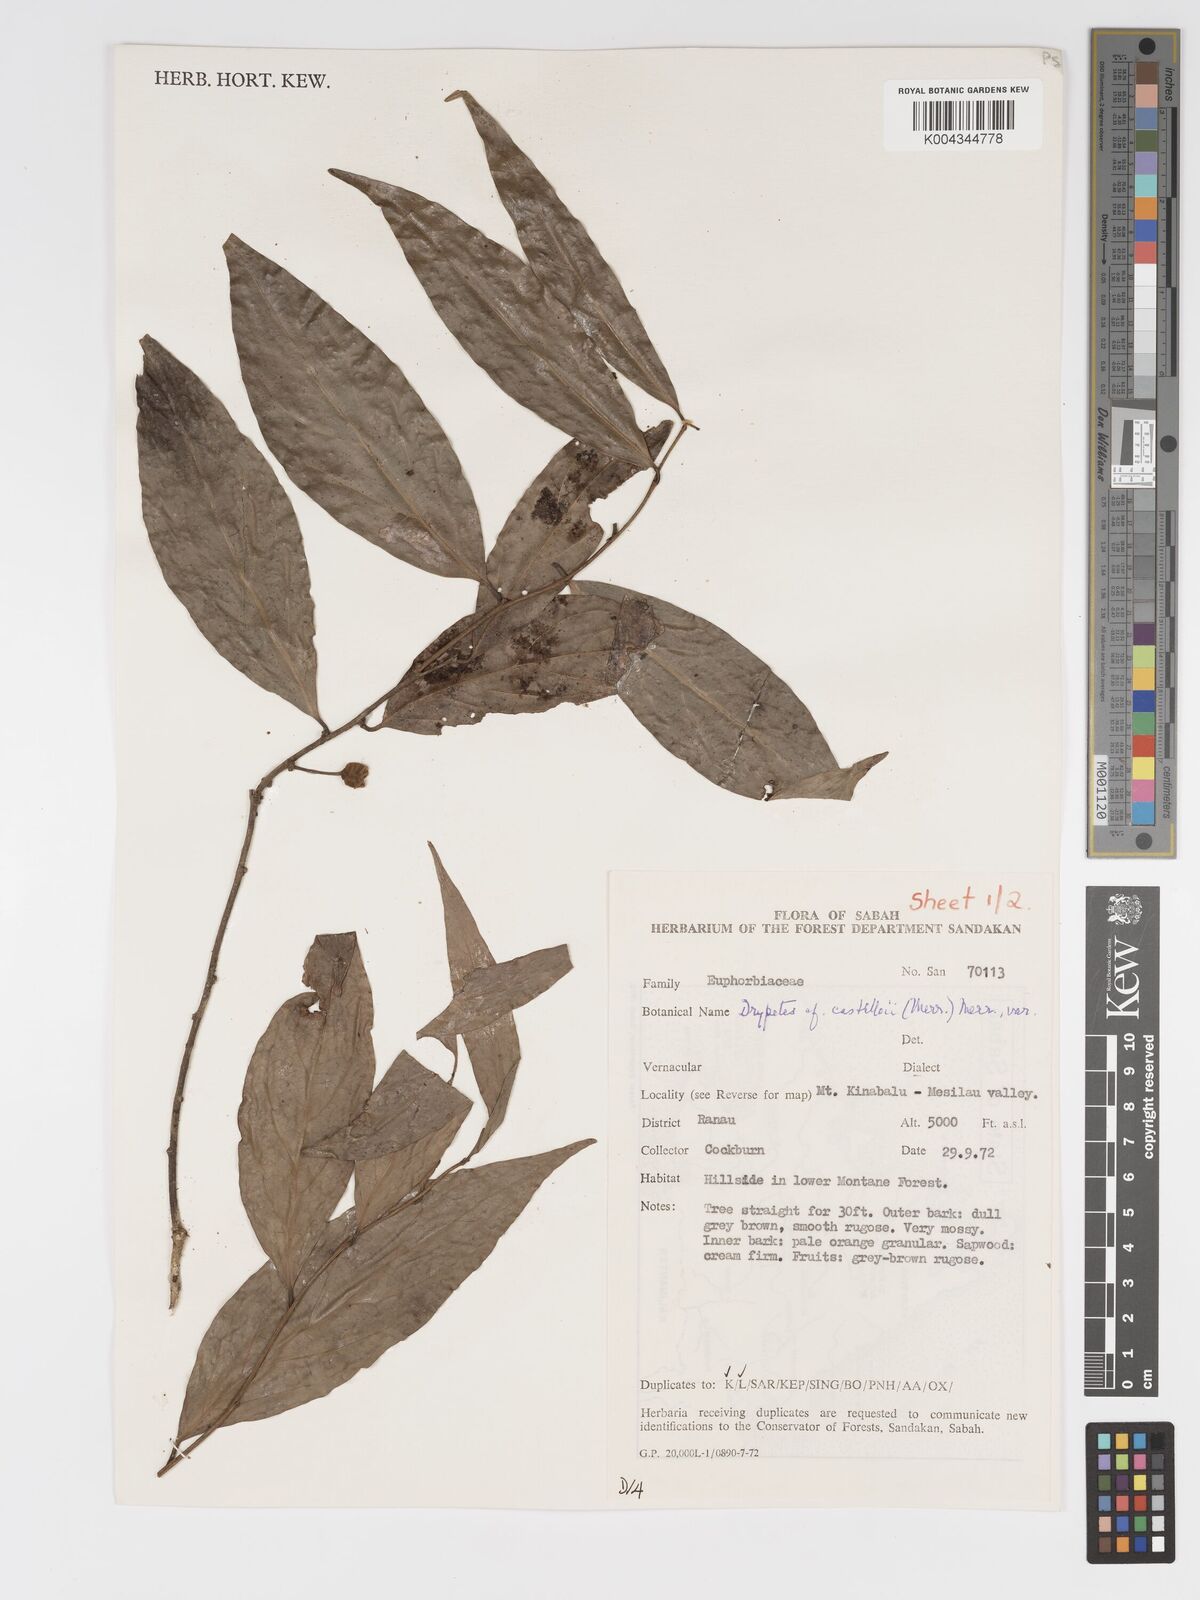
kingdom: Plantae
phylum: Tracheophyta
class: Magnoliopsida
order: Malpighiales
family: Putranjivaceae
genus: Drypetes
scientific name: Drypetes castilloi
